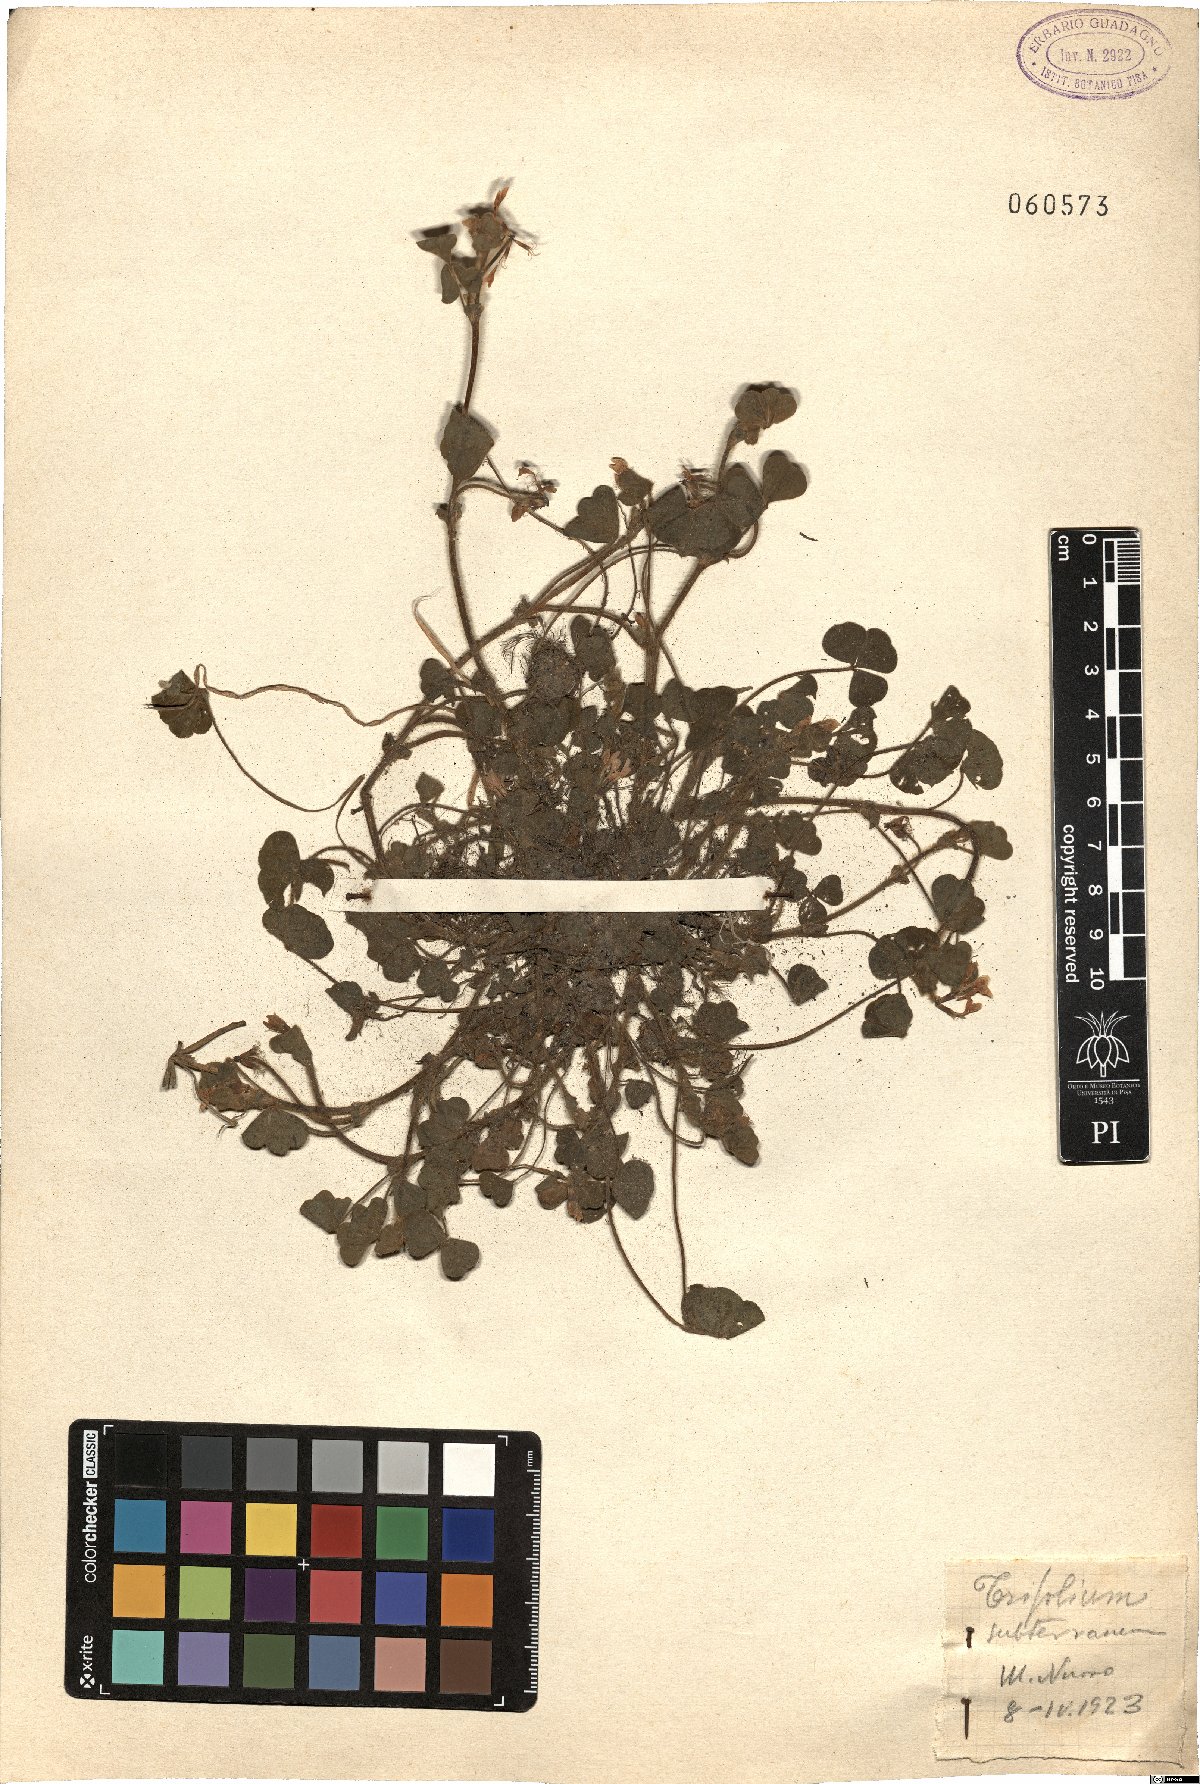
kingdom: Plantae
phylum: Tracheophyta
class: Magnoliopsida
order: Fabales
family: Fabaceae
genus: Trifolium
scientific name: Trifolium subterraneum
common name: Subterranean clover
